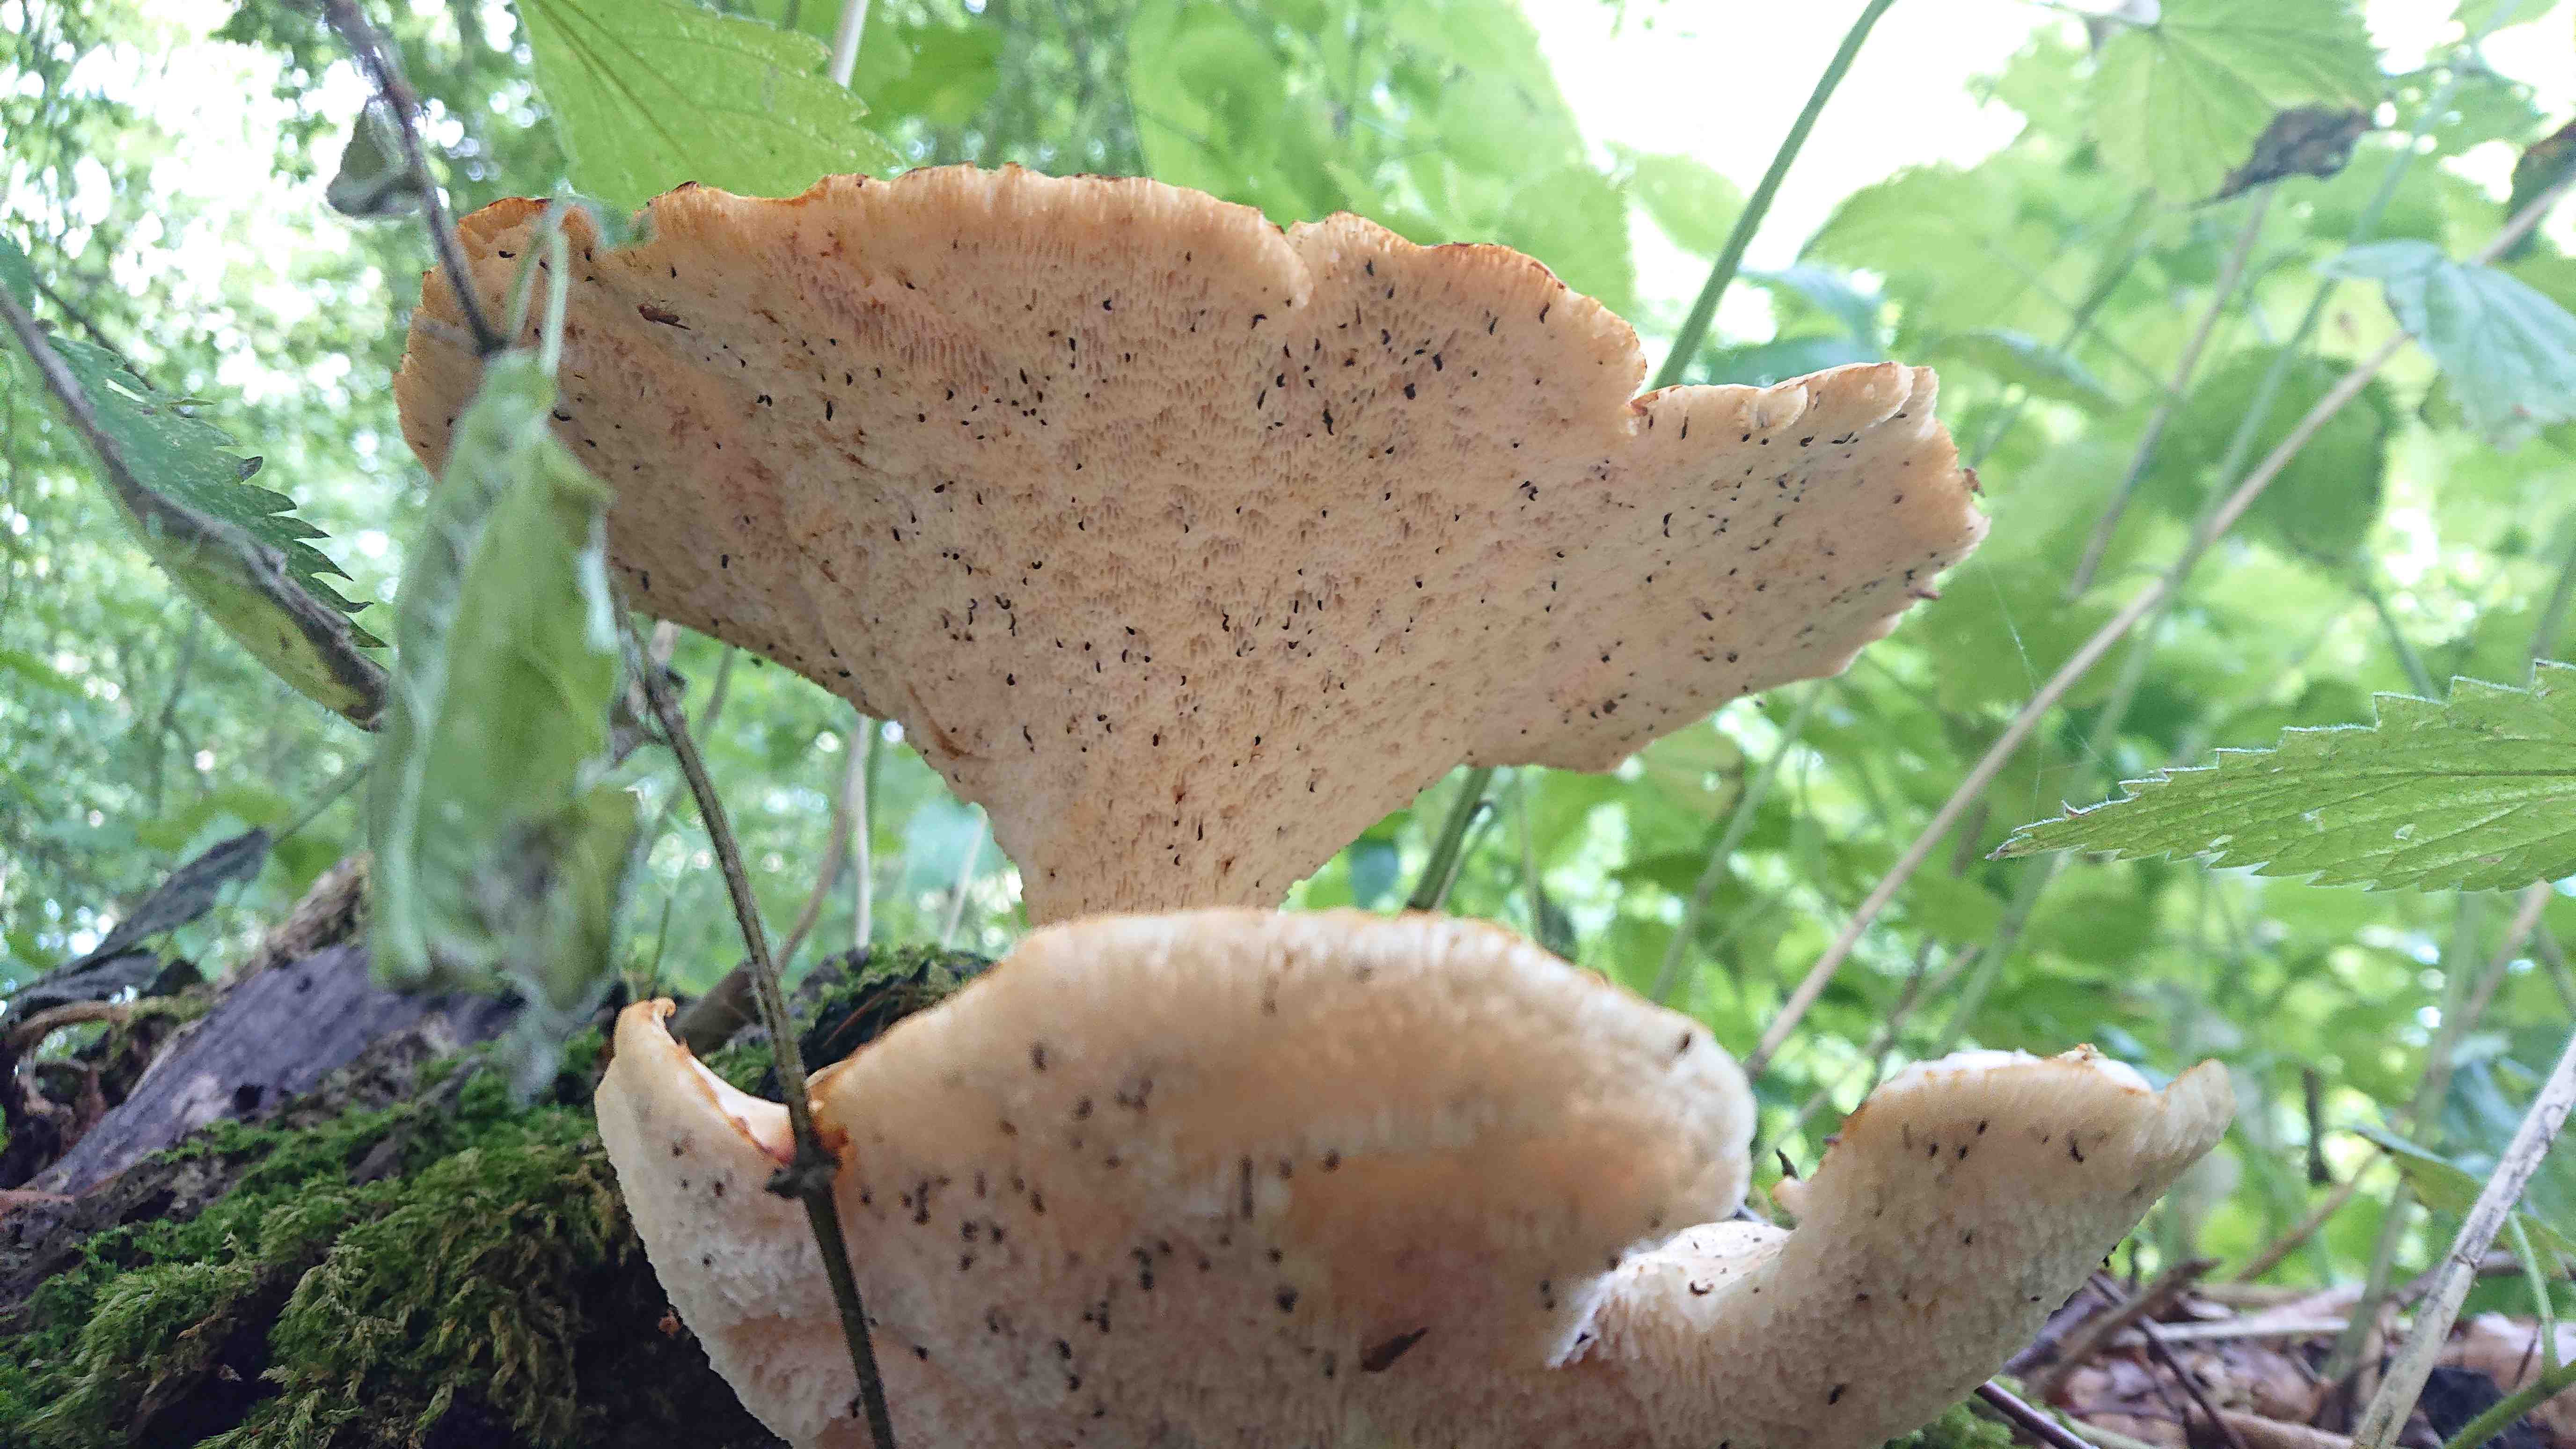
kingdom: Fungi
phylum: Basidiomycota
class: Agaricomycetes
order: Polyporales
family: Polyporaceae
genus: Cerioporus
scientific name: Cerioporus squamosus
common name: skællet stilkporesvamp
